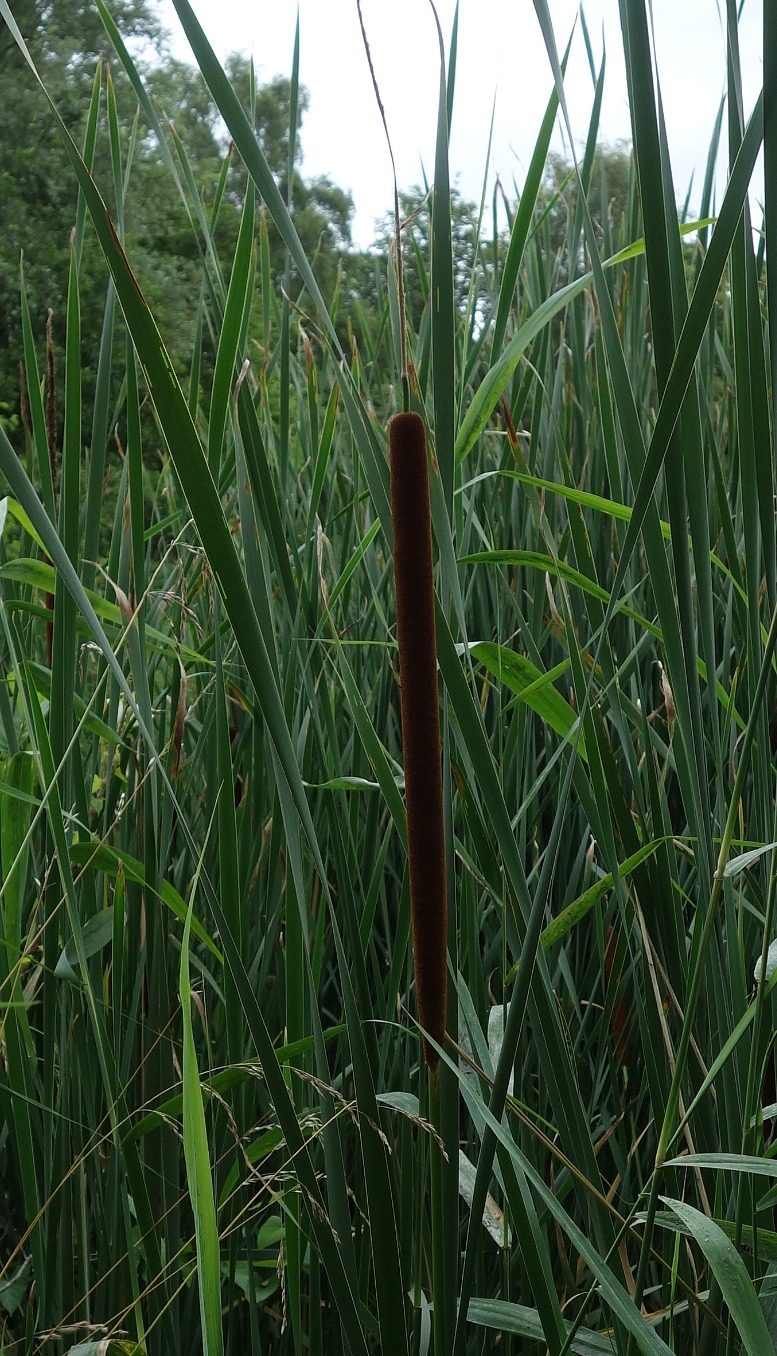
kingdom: Plantae
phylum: Tracheophyta
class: Liliopsida
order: Poales
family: Typhaceae
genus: Typha
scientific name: Typha angustifolia
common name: Smalbladet dunhammer
